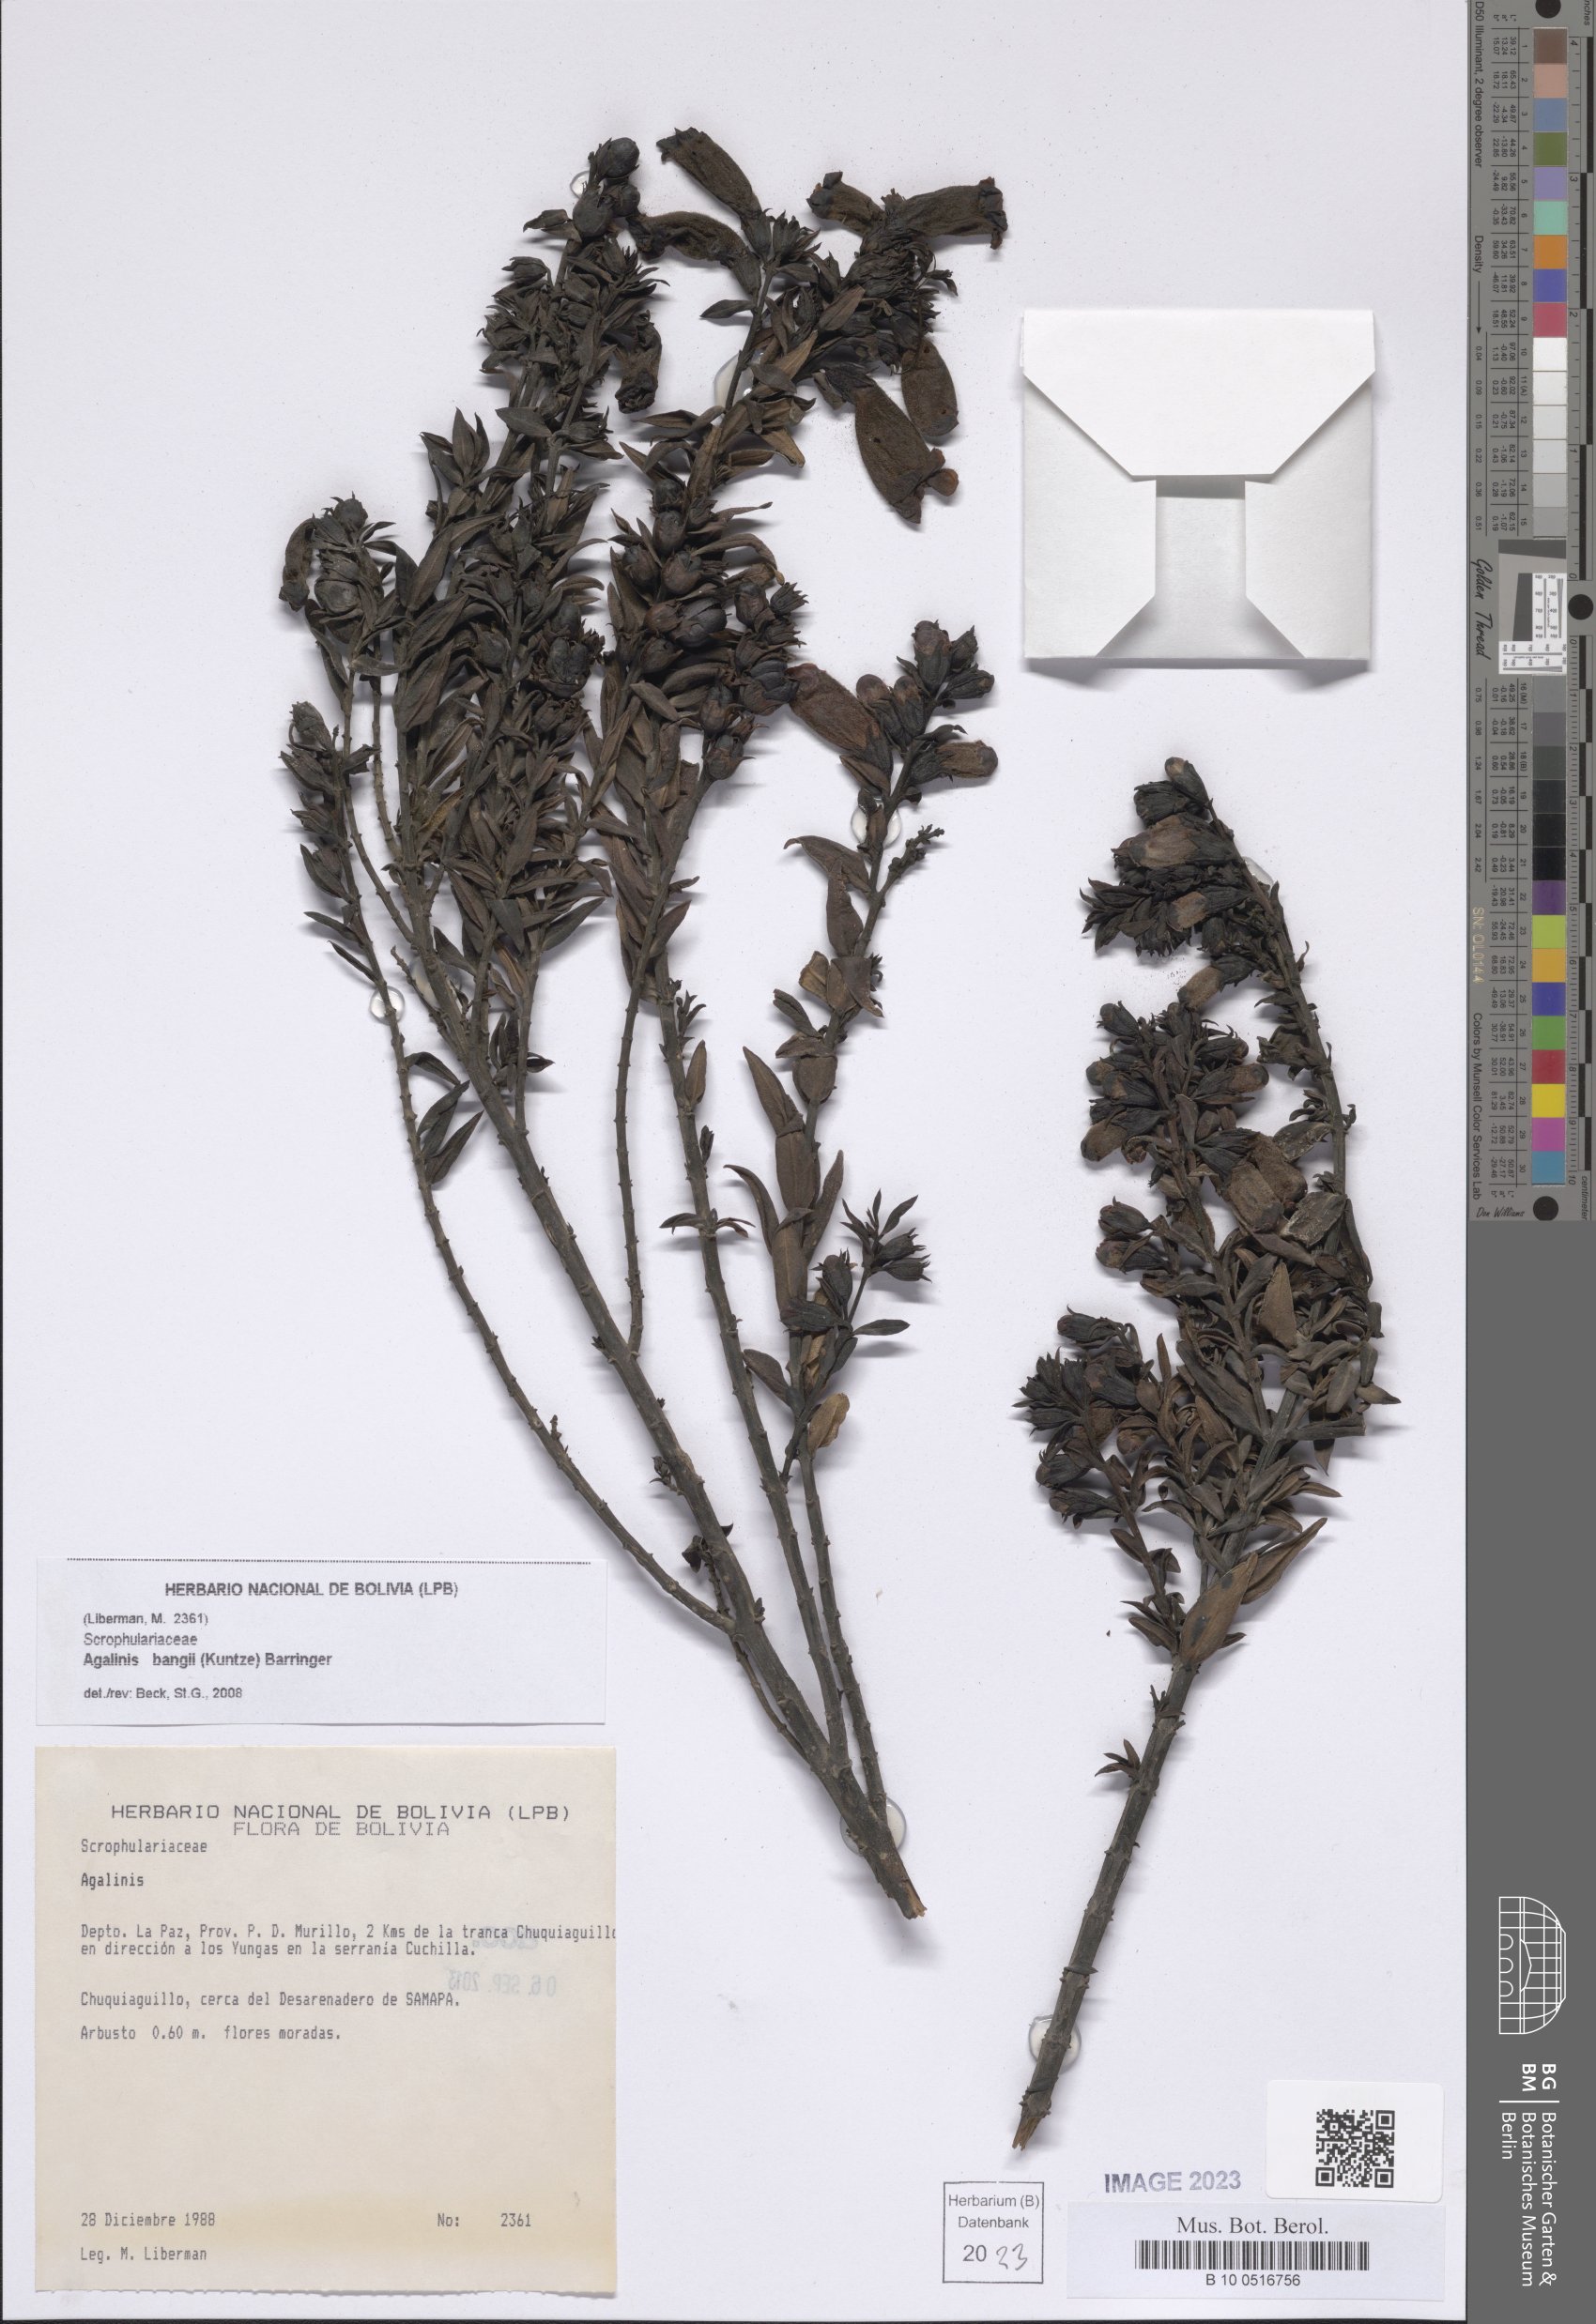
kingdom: Plantae
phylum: Tracheophyta
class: Magnoliopsida
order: Lamiales
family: Orobanchaceae
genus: Agalinis
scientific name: Agalinis bangii
